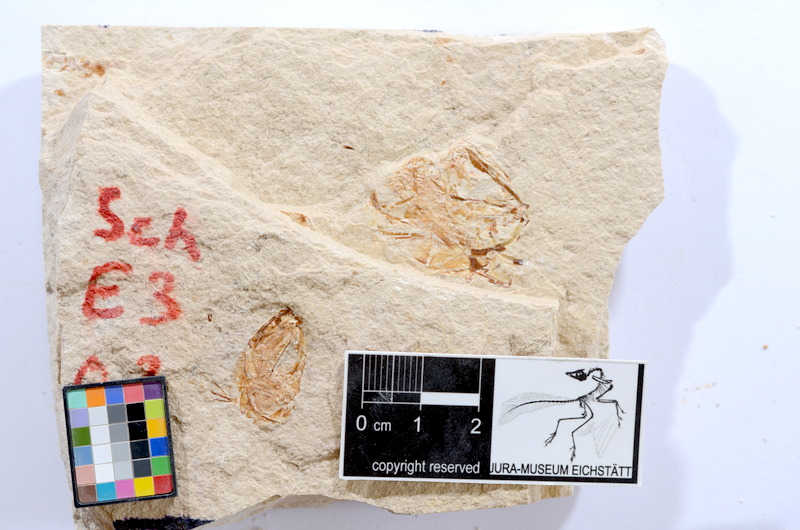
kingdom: Animalia
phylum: Chordata
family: Ascalaboidae
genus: Tharsis
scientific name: Tharsis dubius
